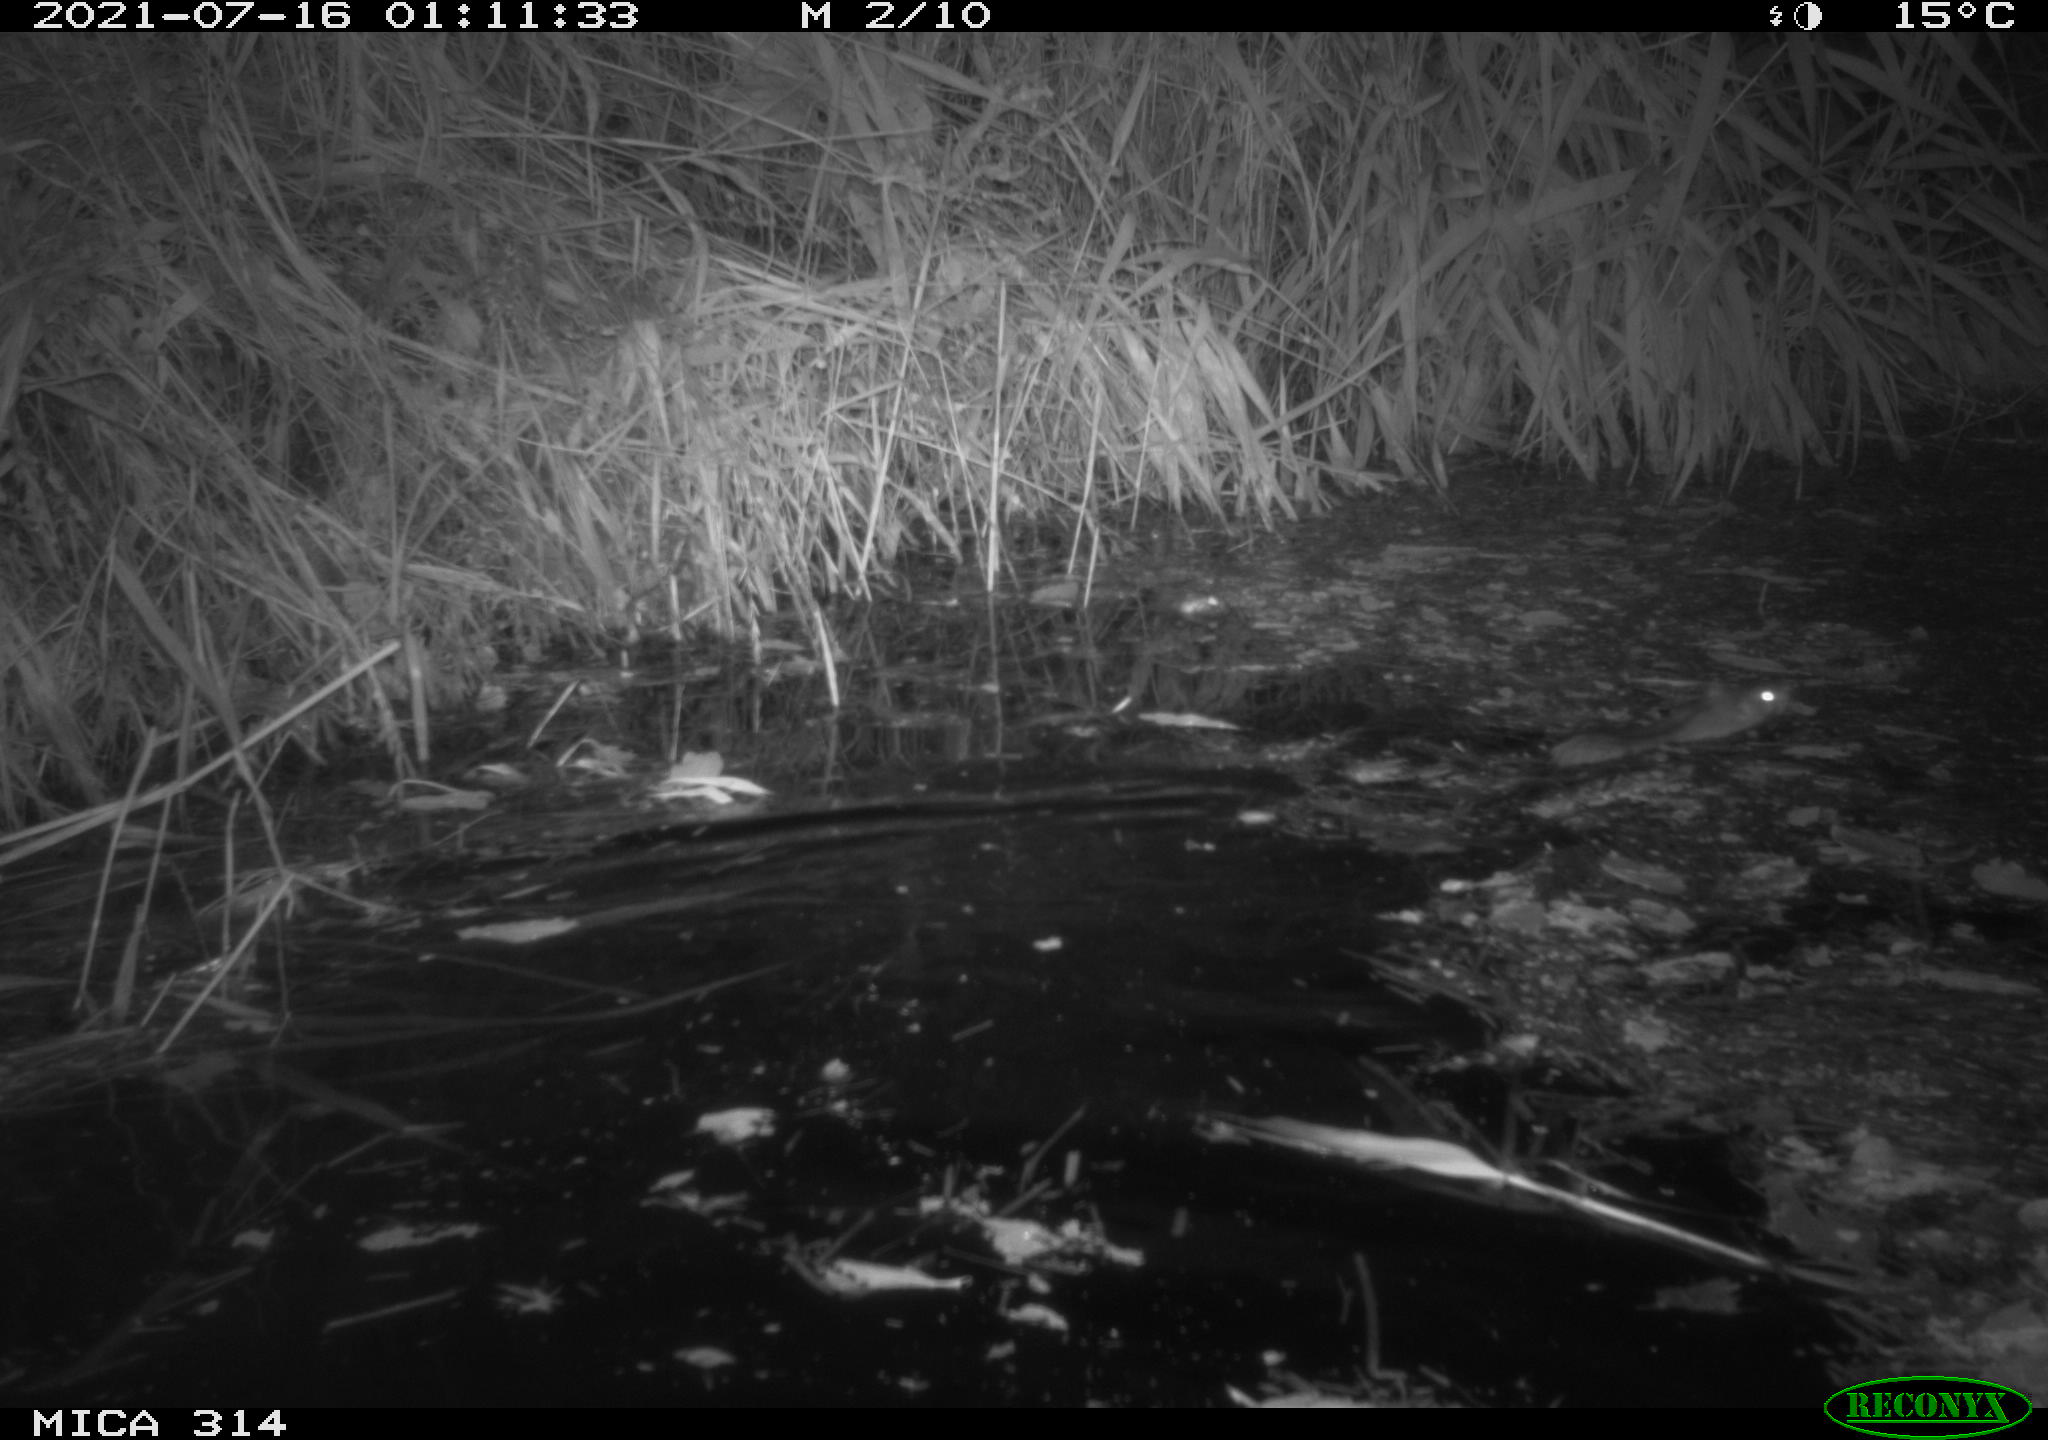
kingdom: Animalia
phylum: Chordata
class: Mammalia
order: Rodentia
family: Muridae
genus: Rattus
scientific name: Rattus norvegicus
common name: Brown rat
